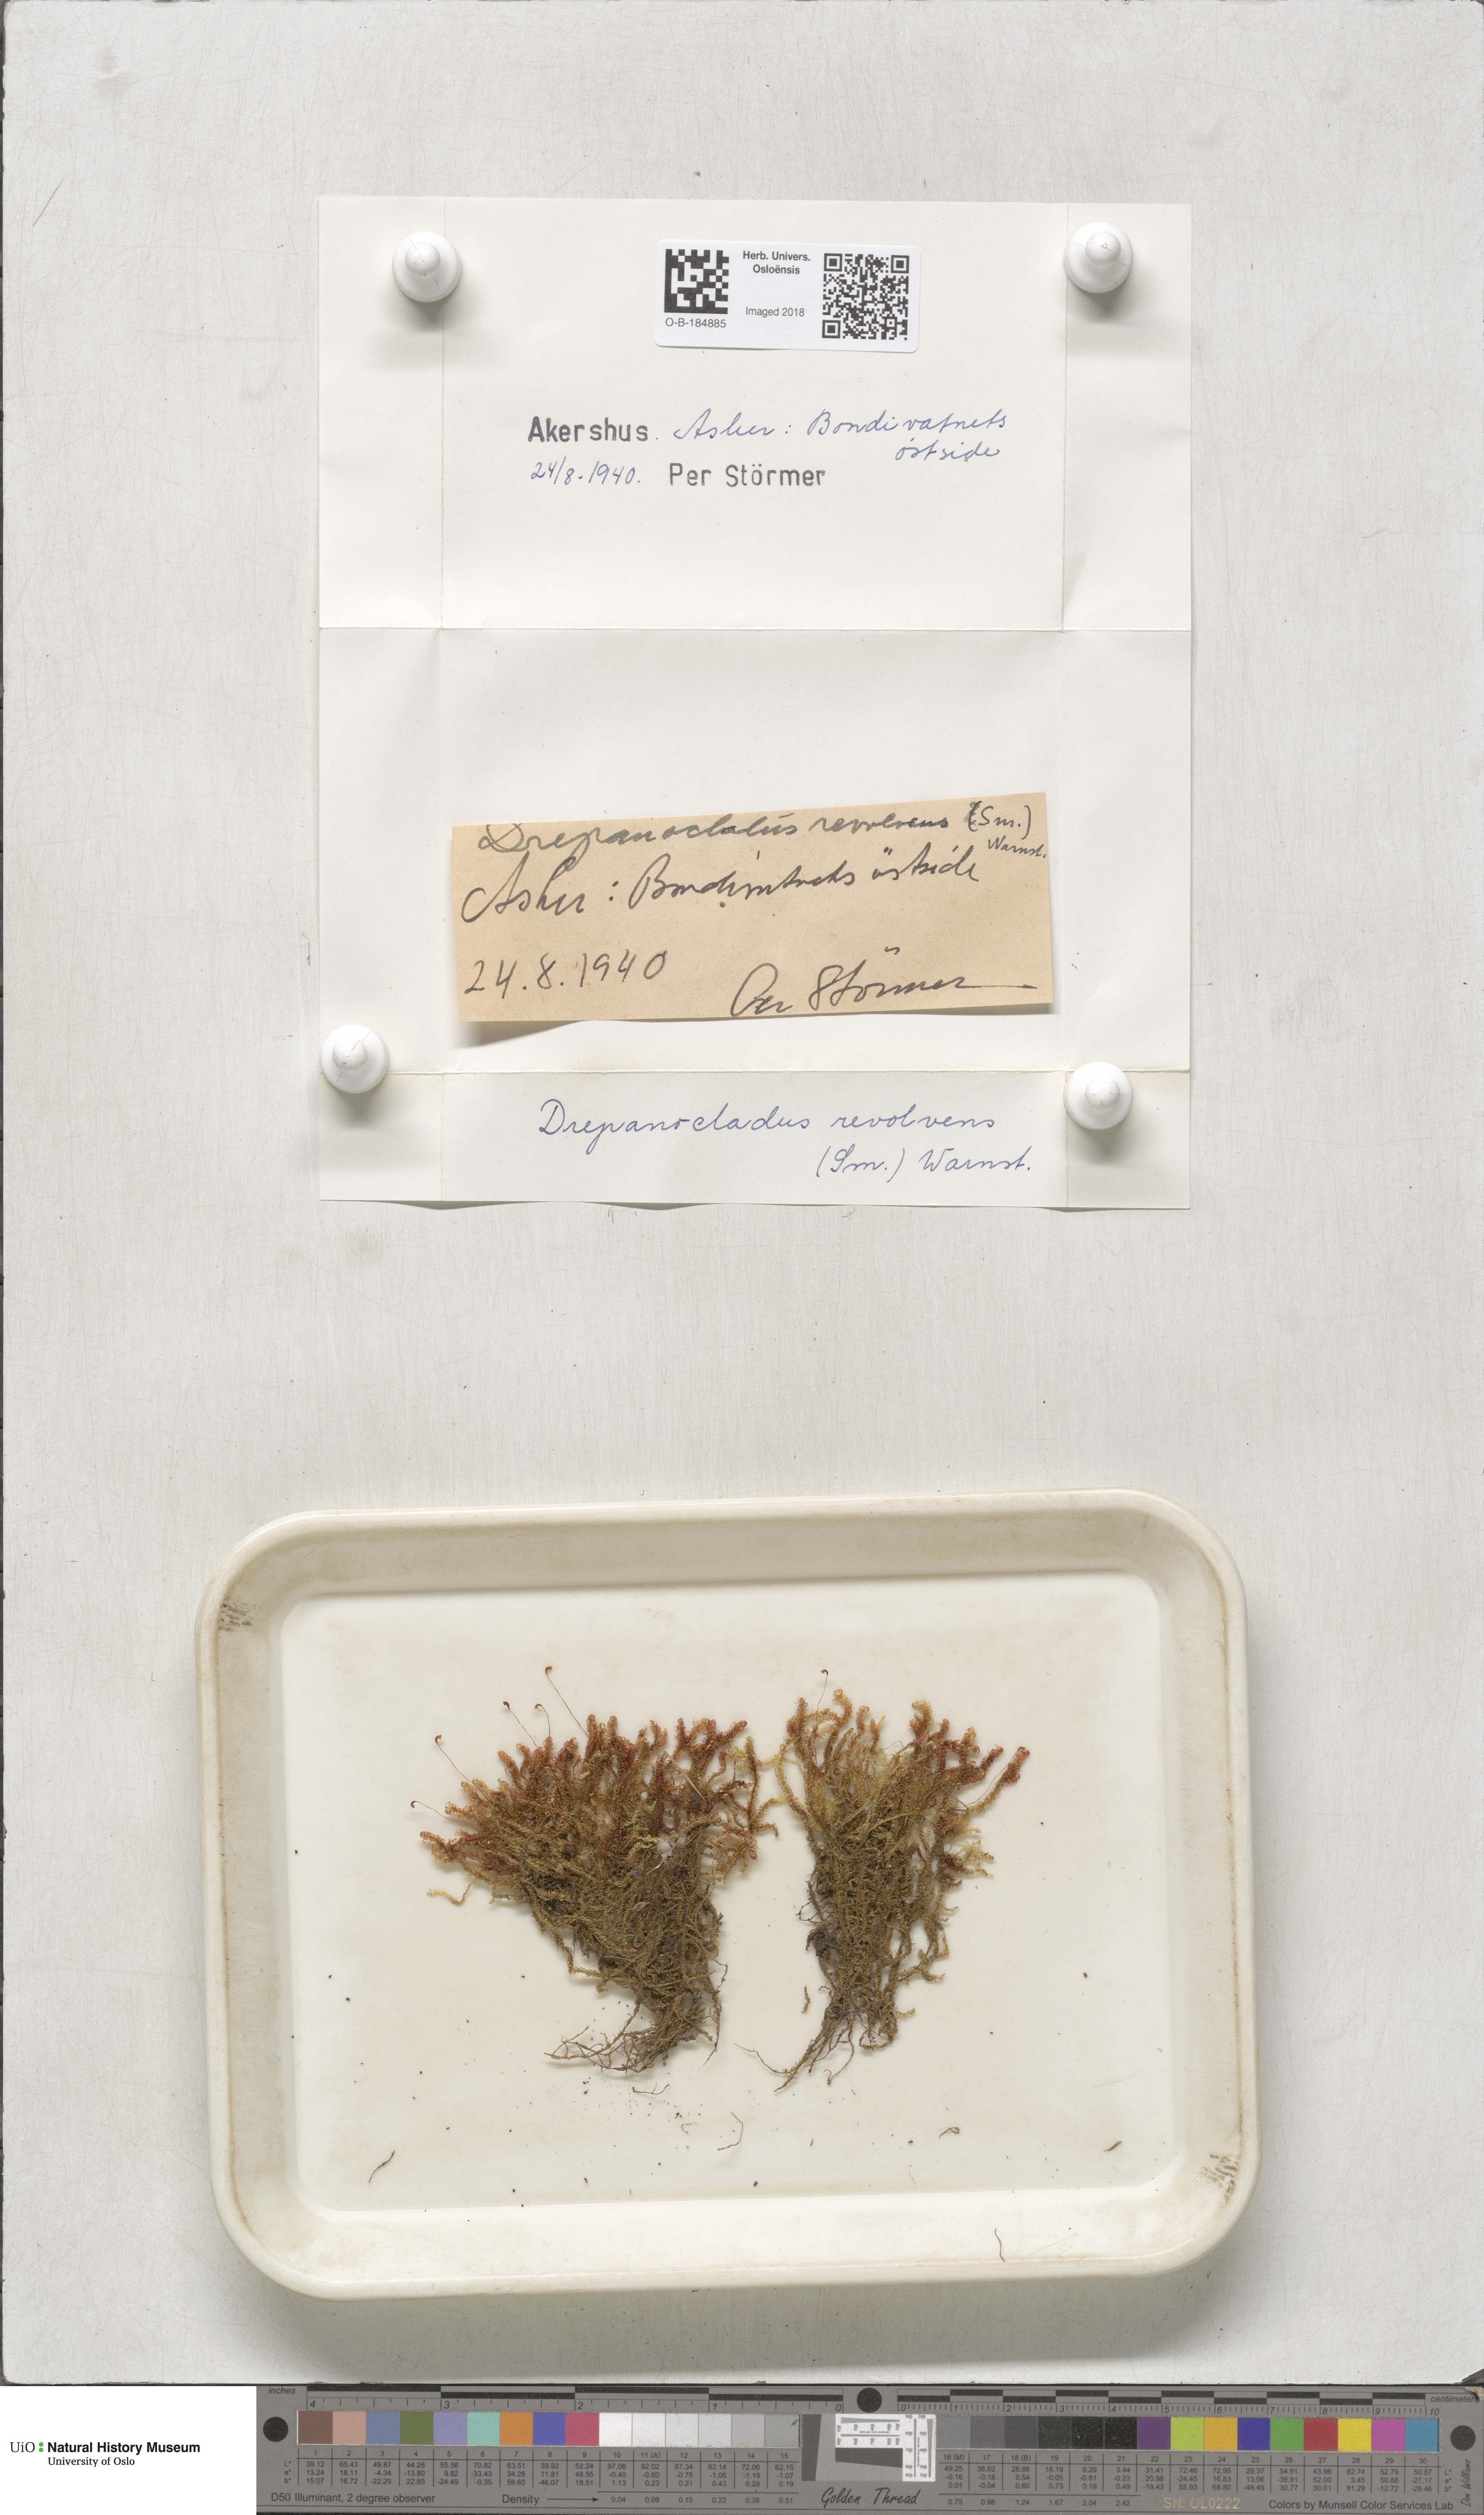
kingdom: Plantae
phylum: Bryophyta
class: Bryopsida
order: Hypnales
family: Scorpidiaceae
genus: Scorpidium
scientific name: Scorpidium revolvens
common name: Rusty hook moss
